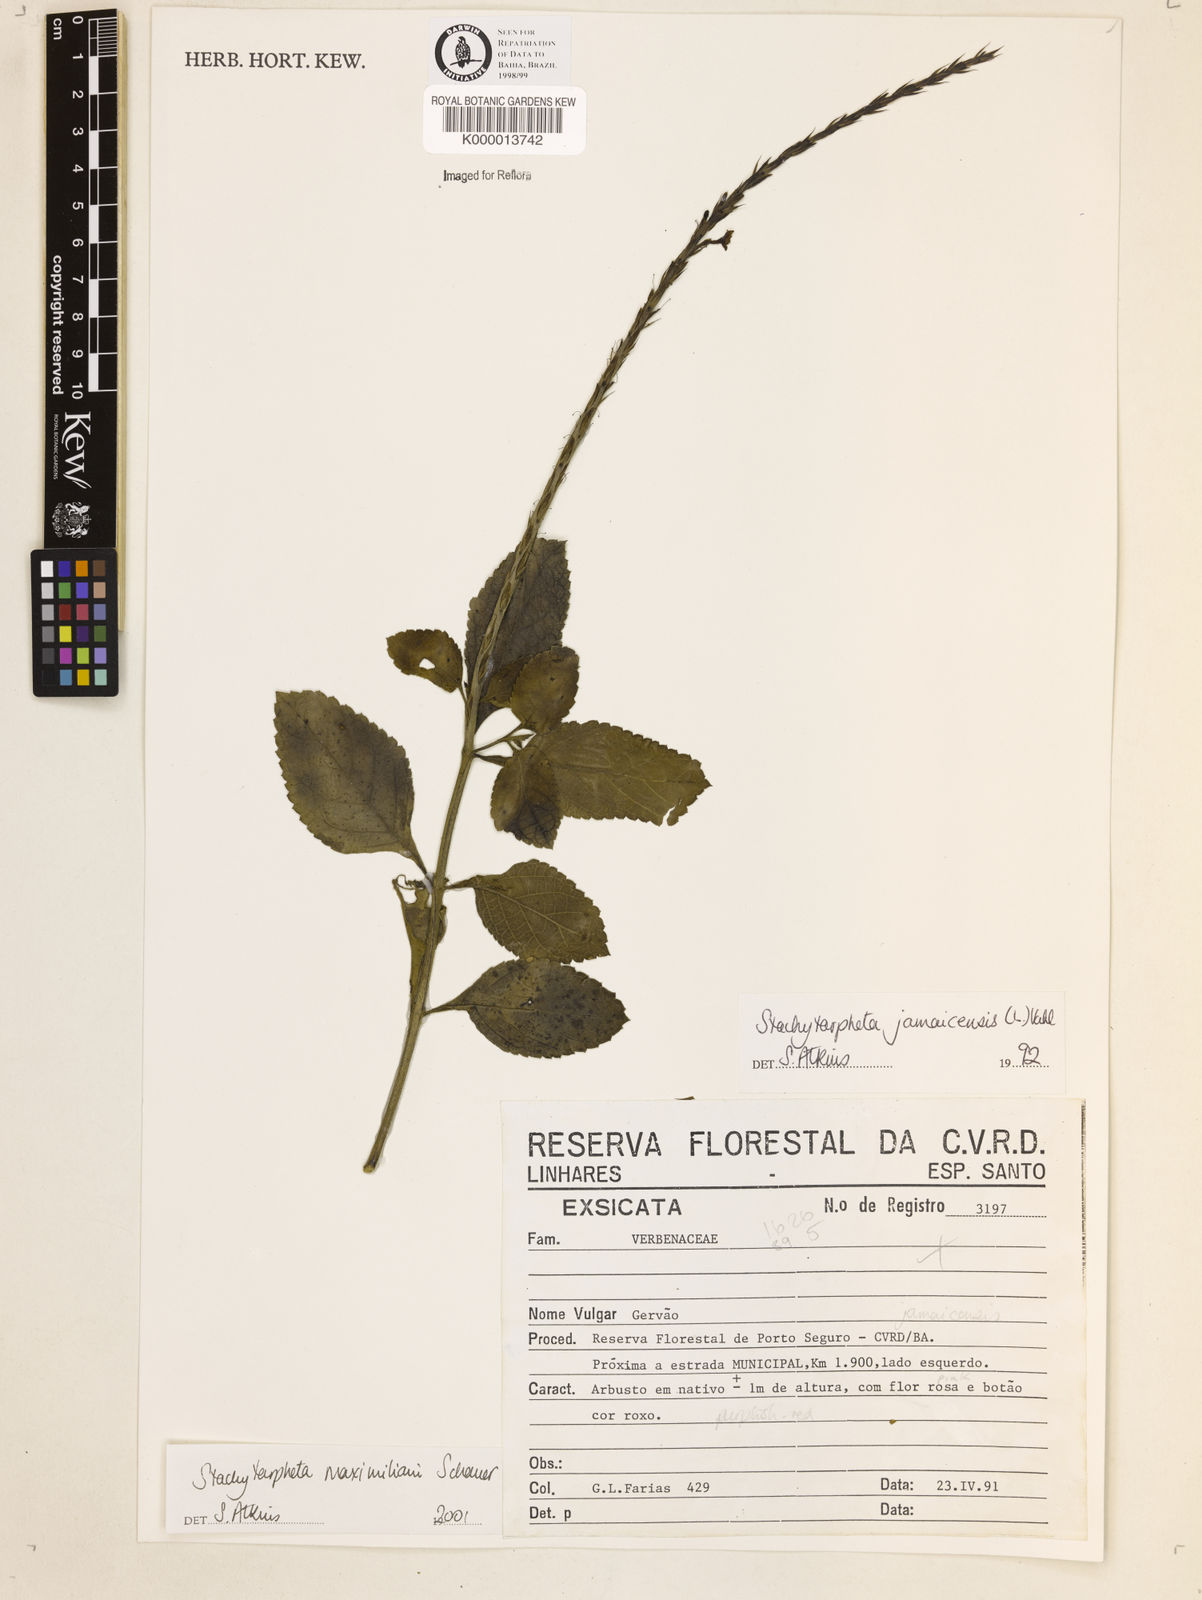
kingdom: Plantae
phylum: Tracheophyta
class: Magnoliopsida
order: Lamiales
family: Verbenaceae
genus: Stachytarpheta
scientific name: Stachytarpheta maximiliani
